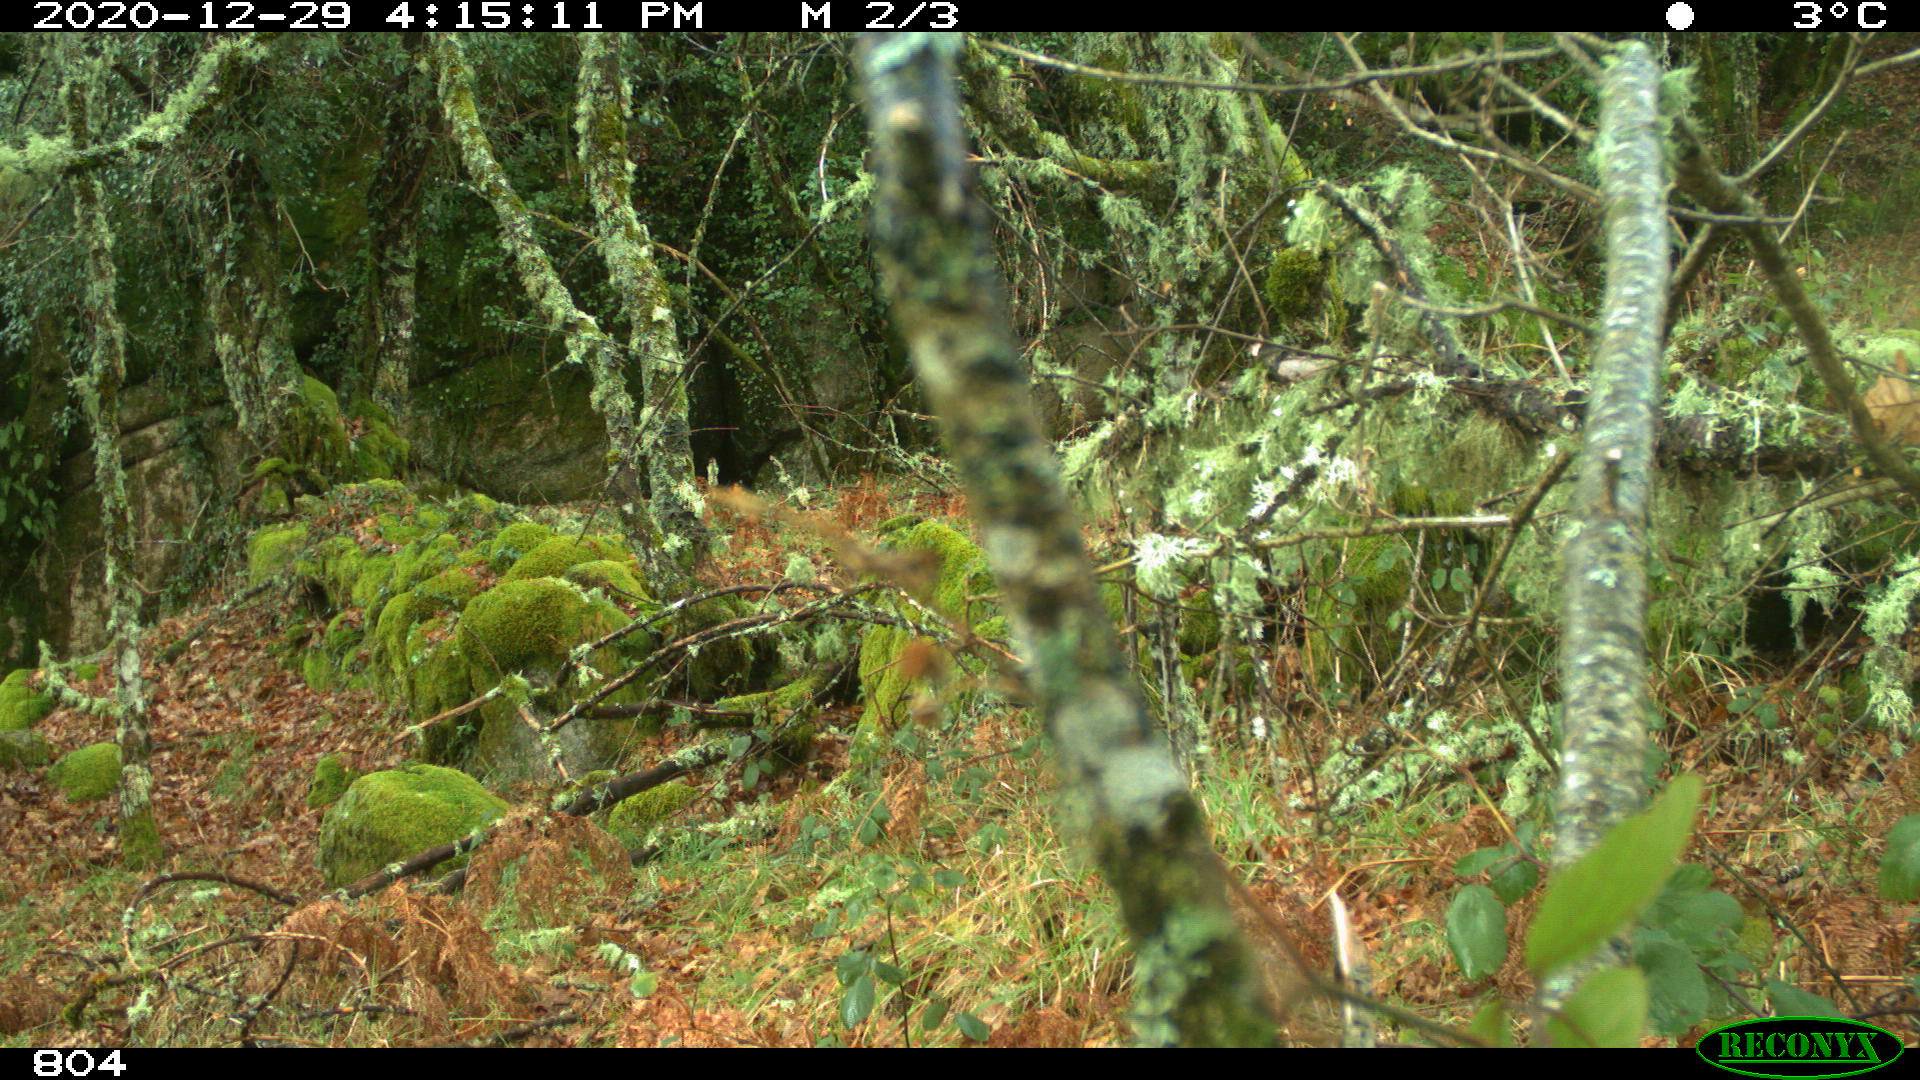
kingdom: Animalia
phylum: Chordata
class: Mammalia
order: Carnivora
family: Canidae
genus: Canis
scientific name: Canis lupus
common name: Gray wolf
